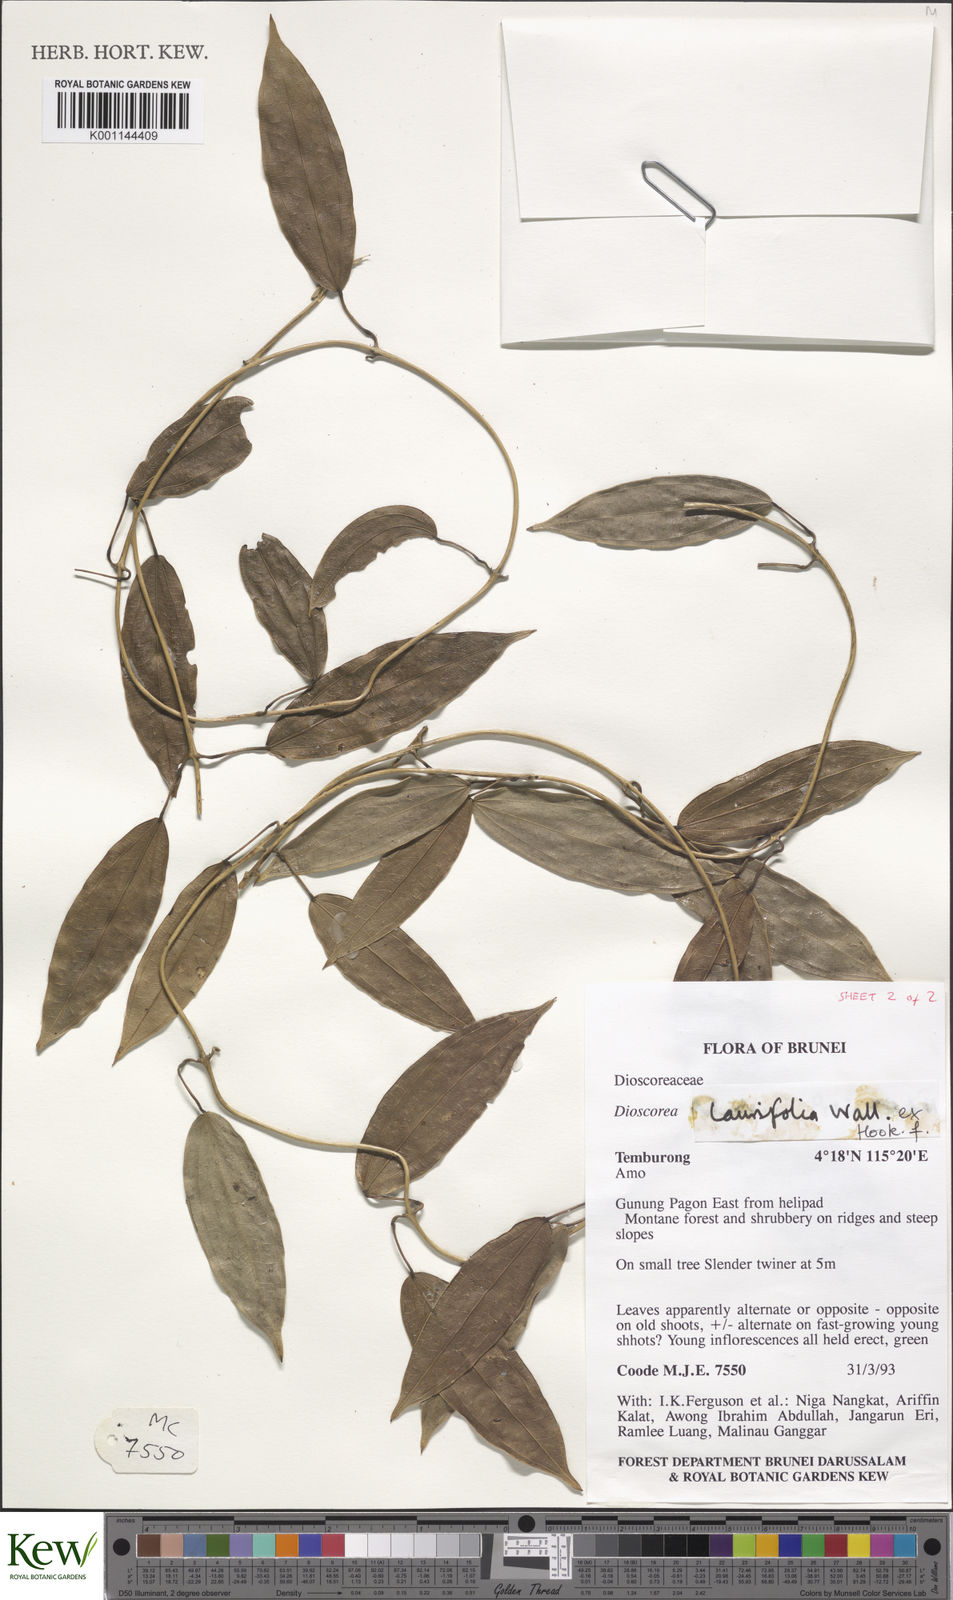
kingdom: Plantae
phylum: Tracheophyta
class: Liliopsida
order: Dioscoreales
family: Dioscoreaceae
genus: Dioscorea
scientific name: Dioscorea laurifolia
